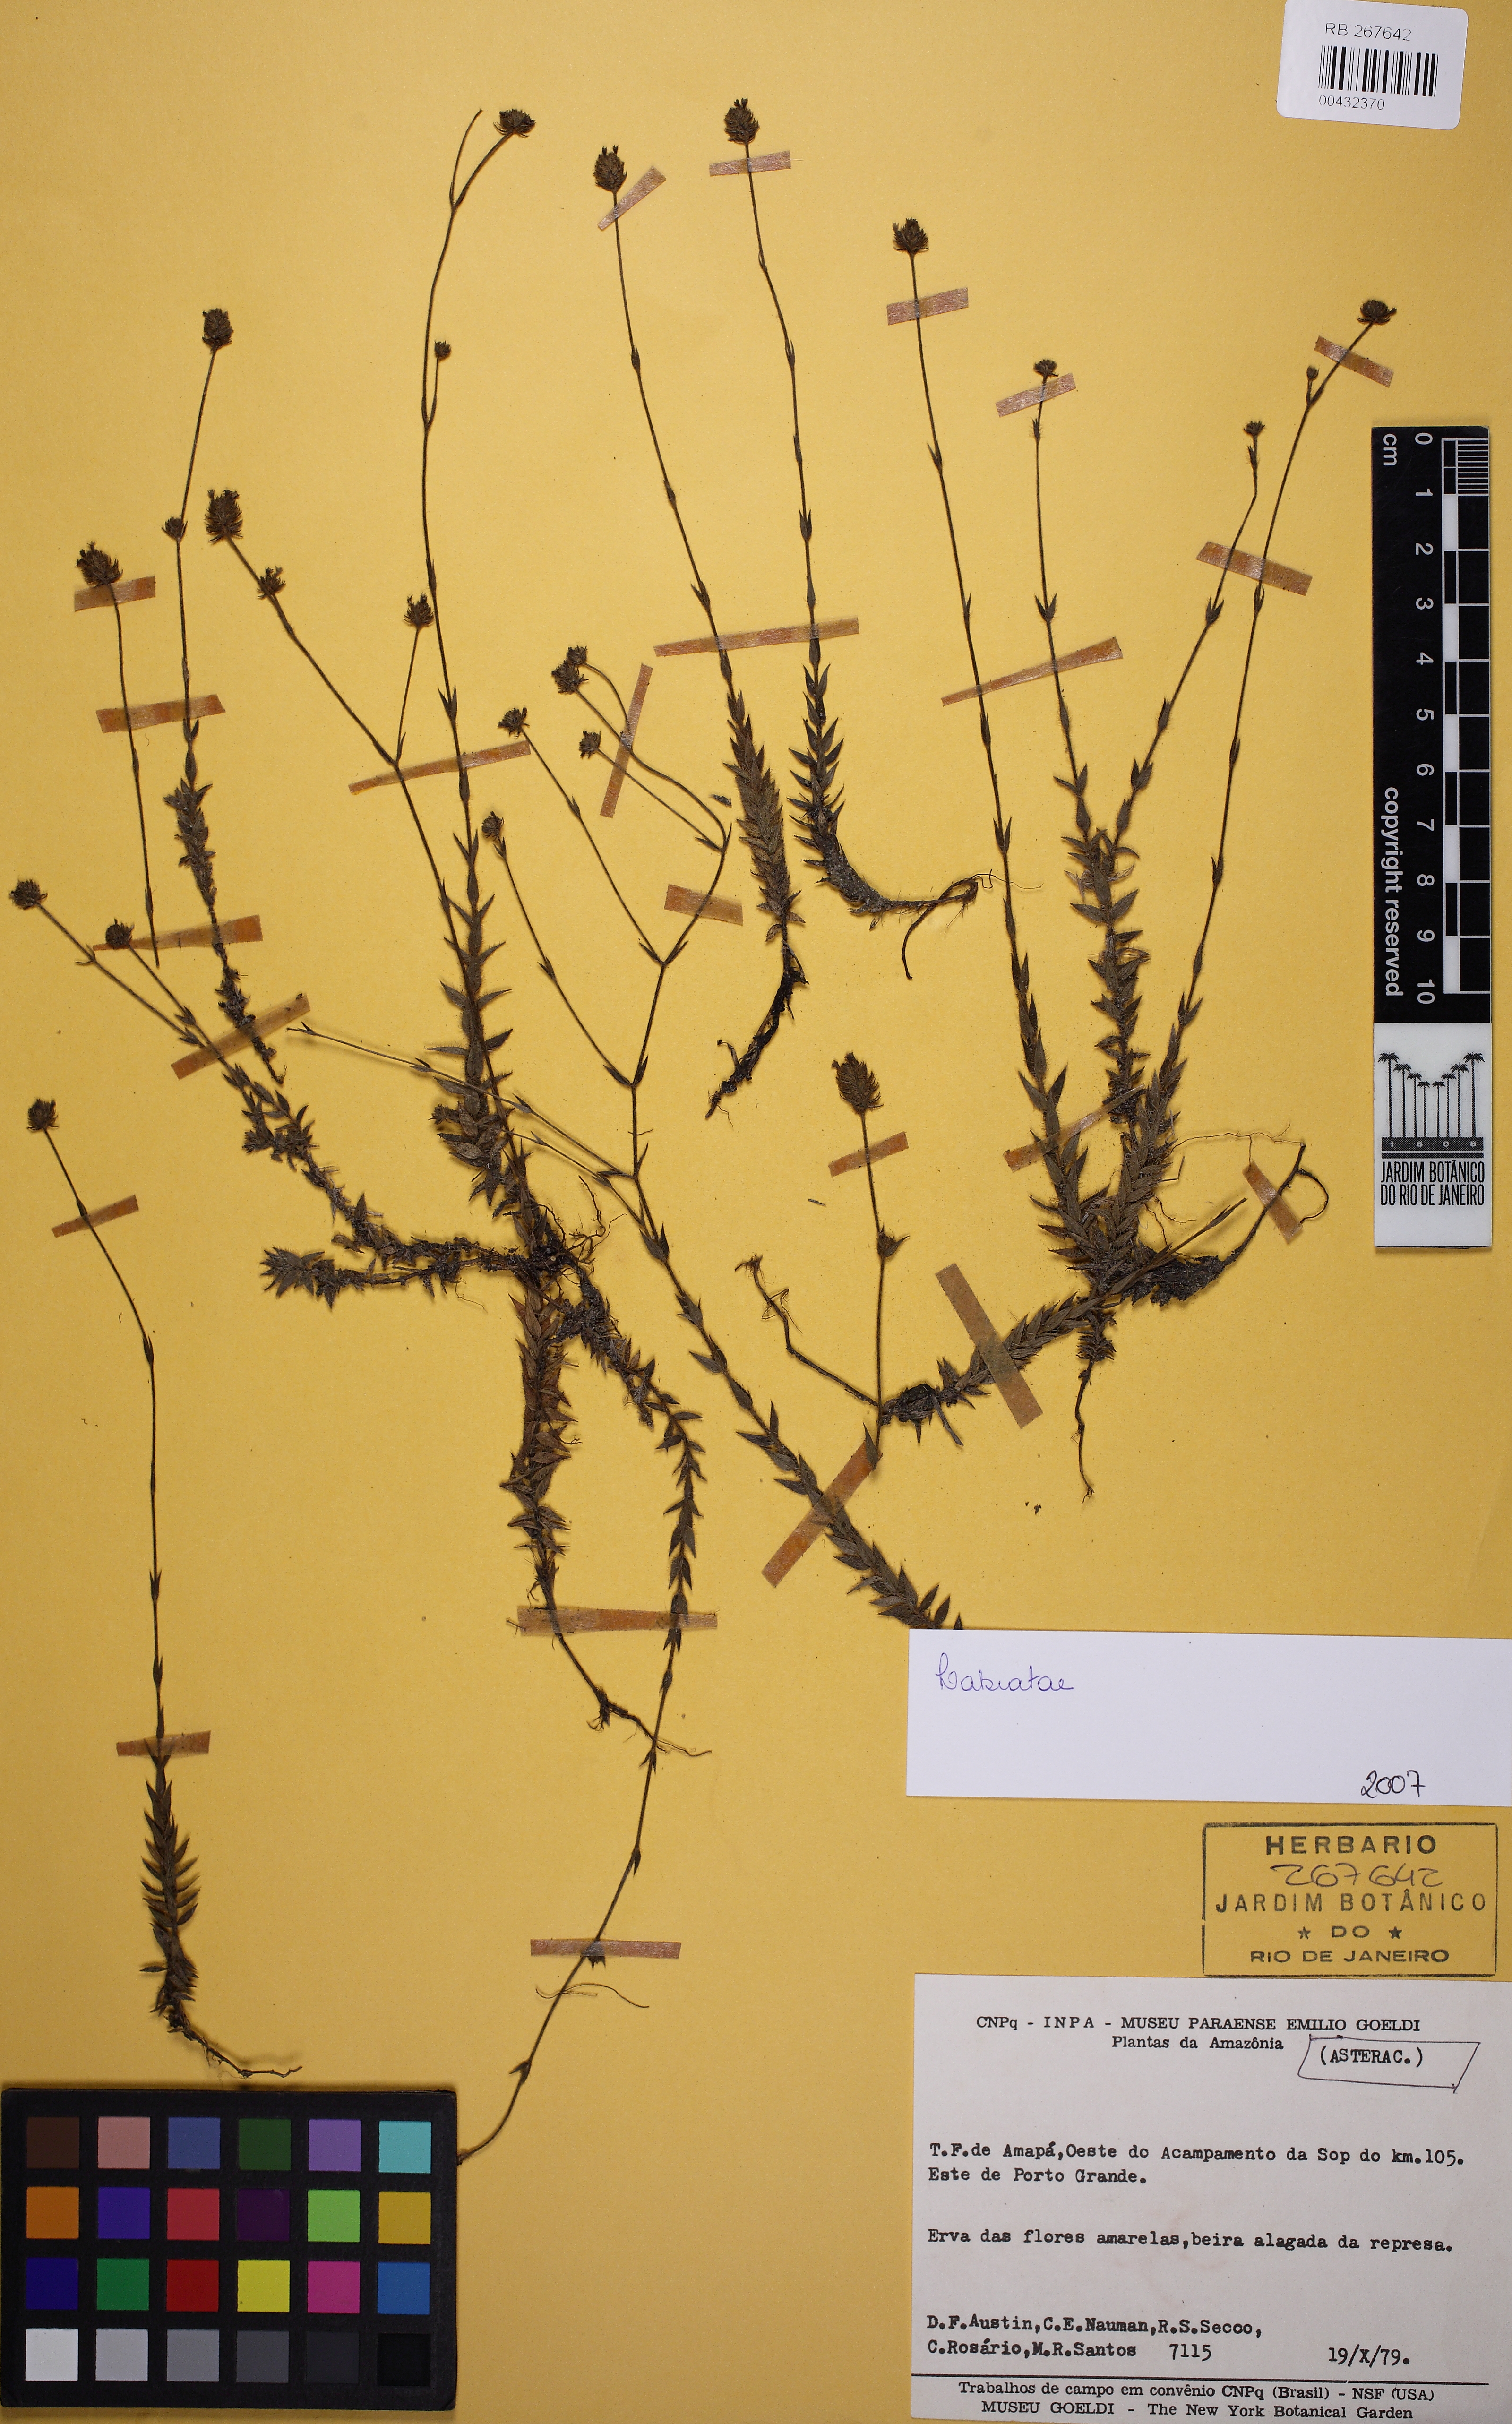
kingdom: Plantae
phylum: Tracheophyta
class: Magnoliopsida
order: Lamiales
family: Lamiaceae
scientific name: Lamiaceae
